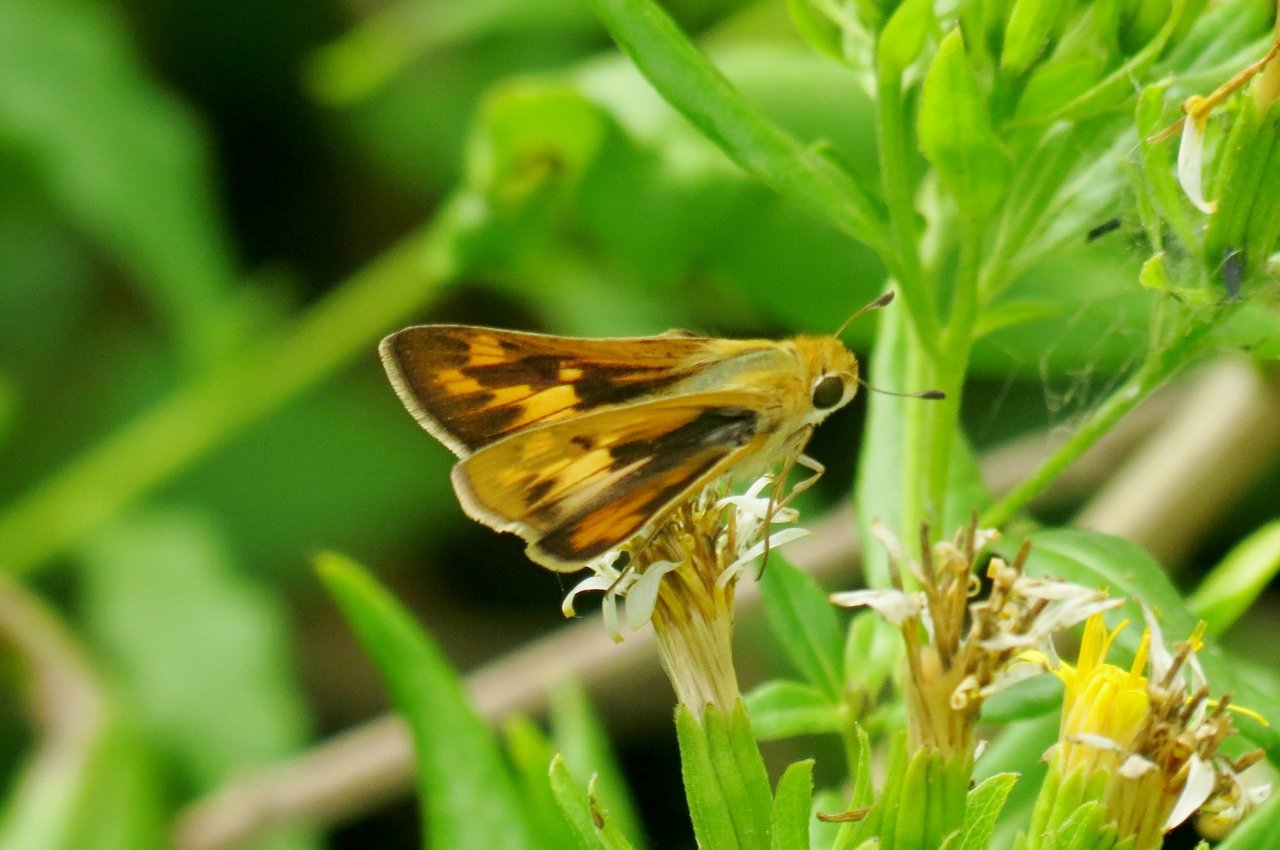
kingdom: Animalia
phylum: Arthropoda
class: Insecta
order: Lepidoptera
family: Hesperiidae
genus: Polites
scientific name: Polites vibex
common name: Whirlabout
